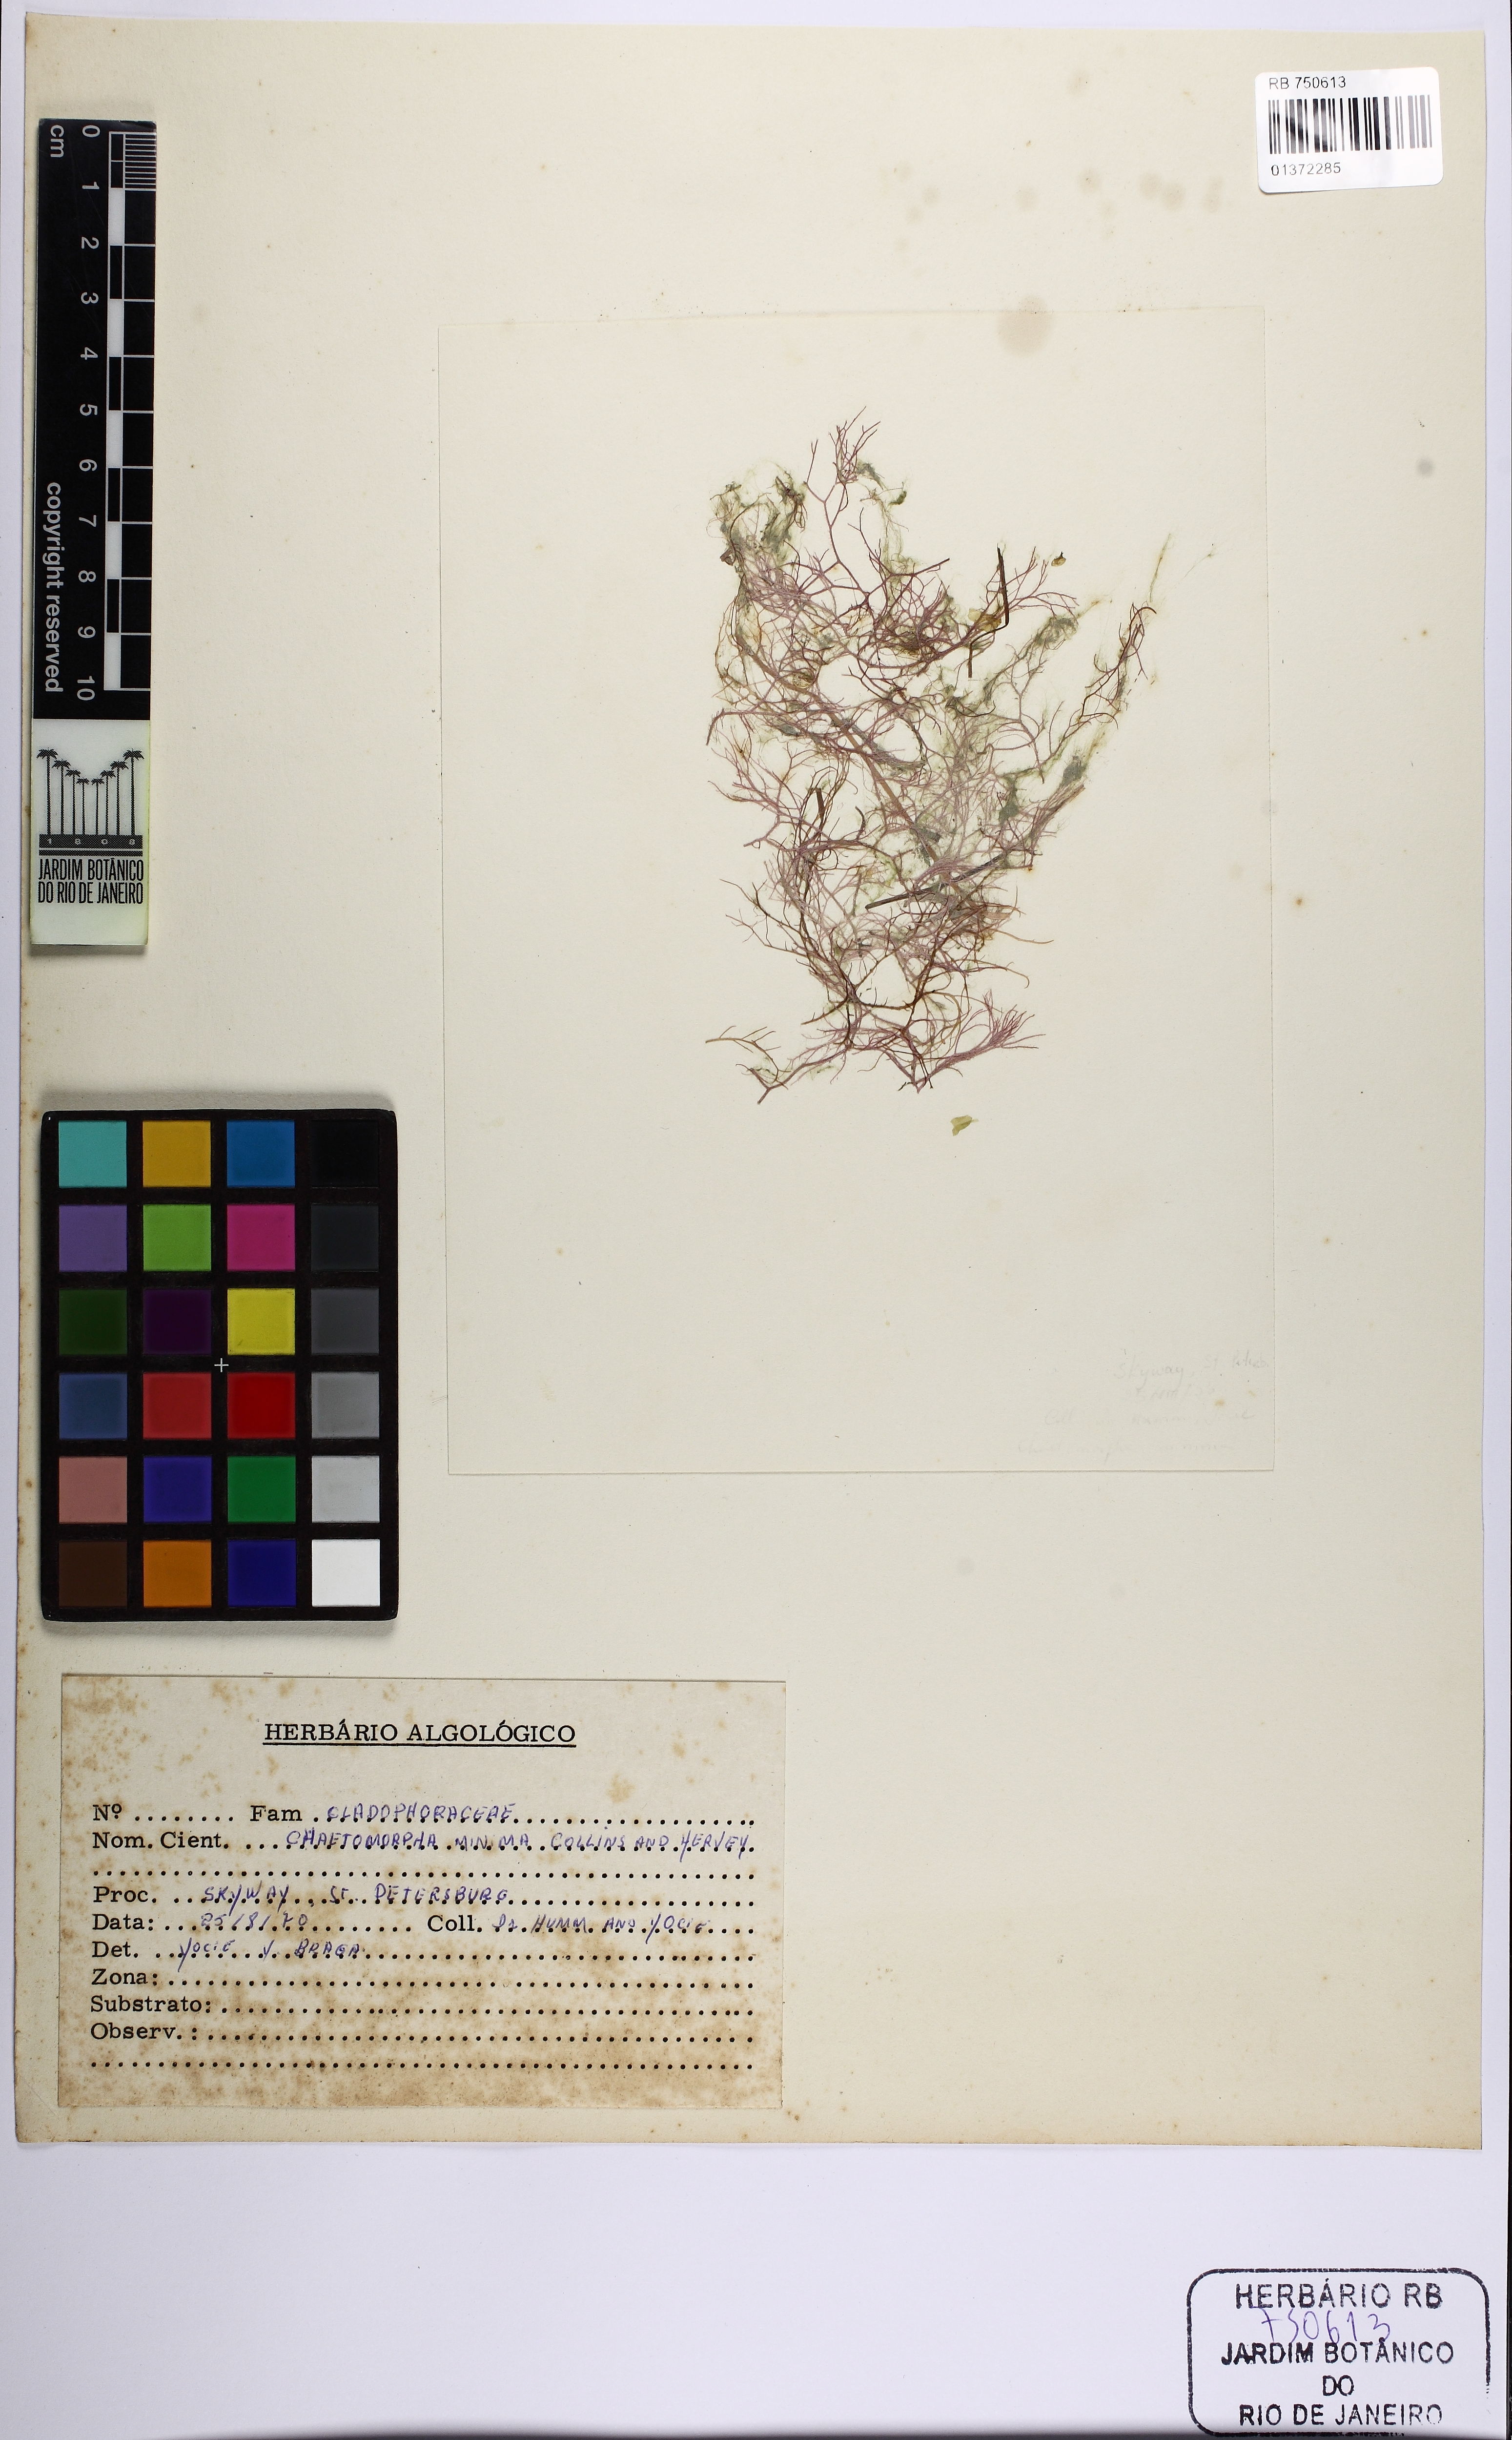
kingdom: Plantae
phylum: Chlorophyta
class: Ulvophyceae
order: Cladophorales
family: Cladophoraceae
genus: Chaetomorpha
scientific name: Chaetomorpha minima
